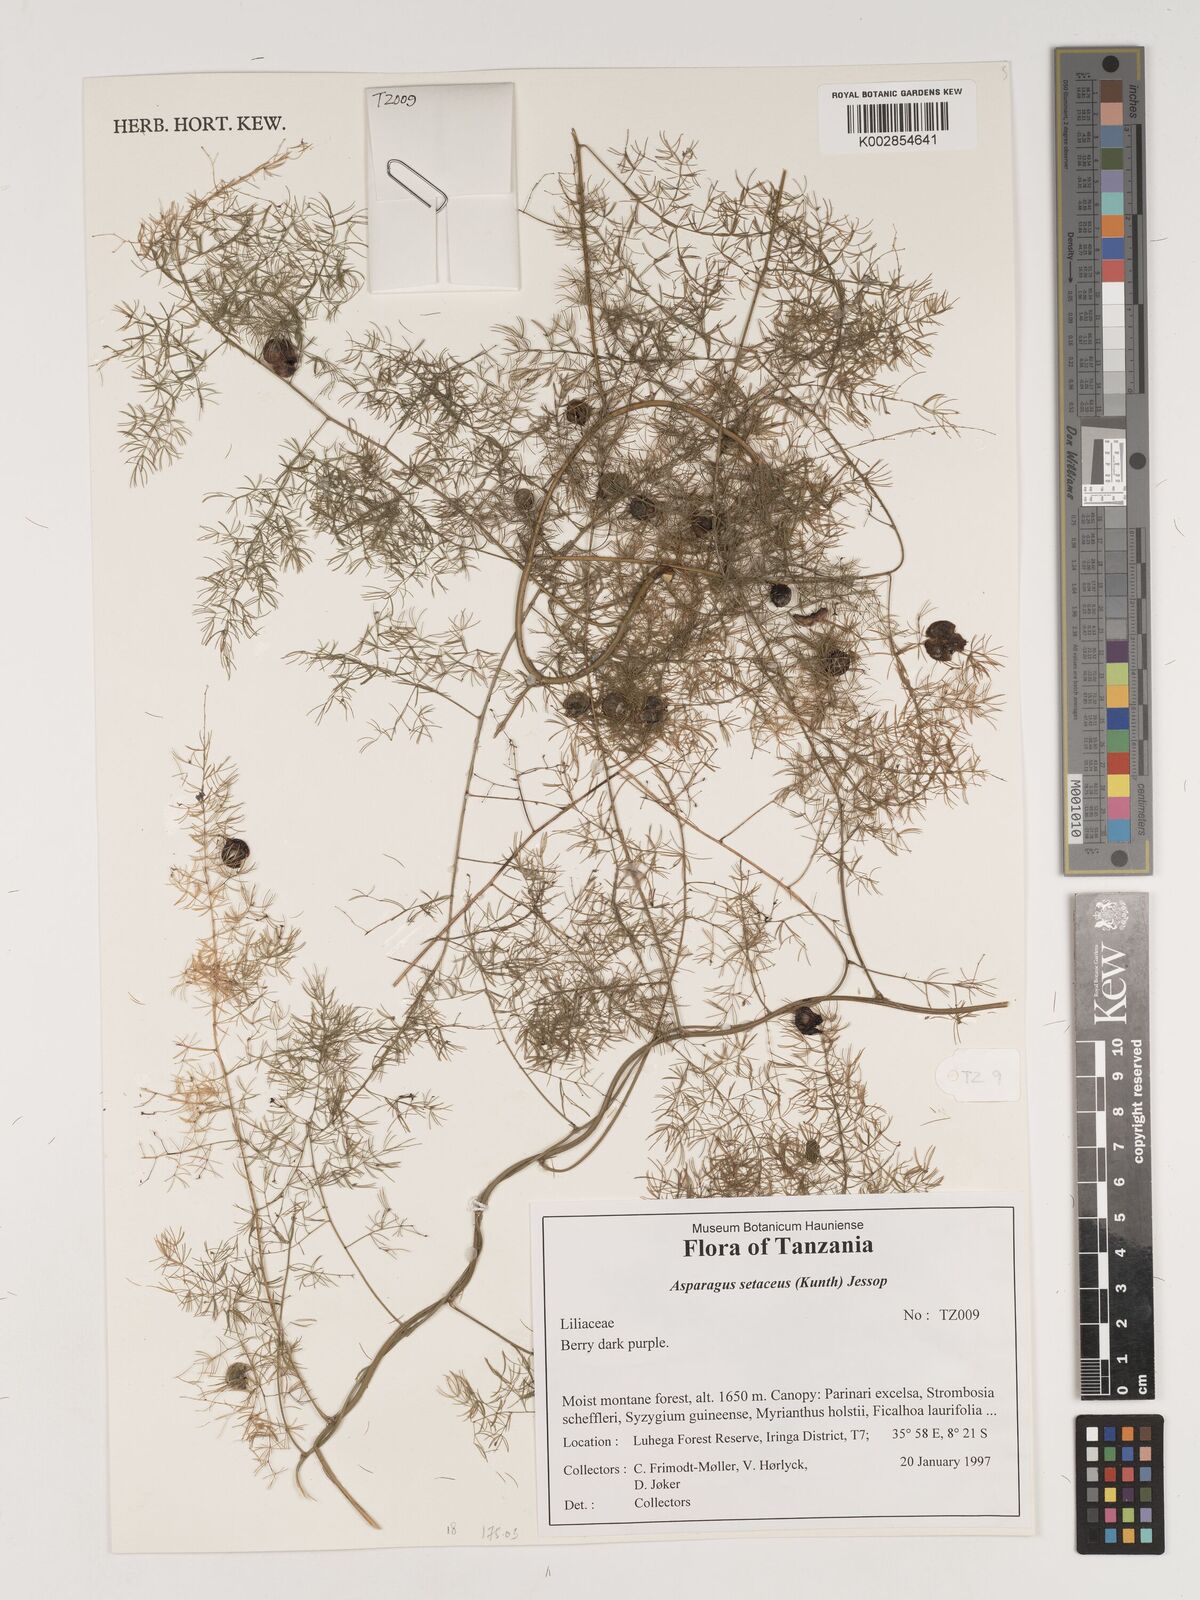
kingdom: Plantae
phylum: Tracheophyta
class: Liliopsida
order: Asparagales
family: Asparagaceae
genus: Asparagus
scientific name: Asparagus setaceus
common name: Common asparagus fern
